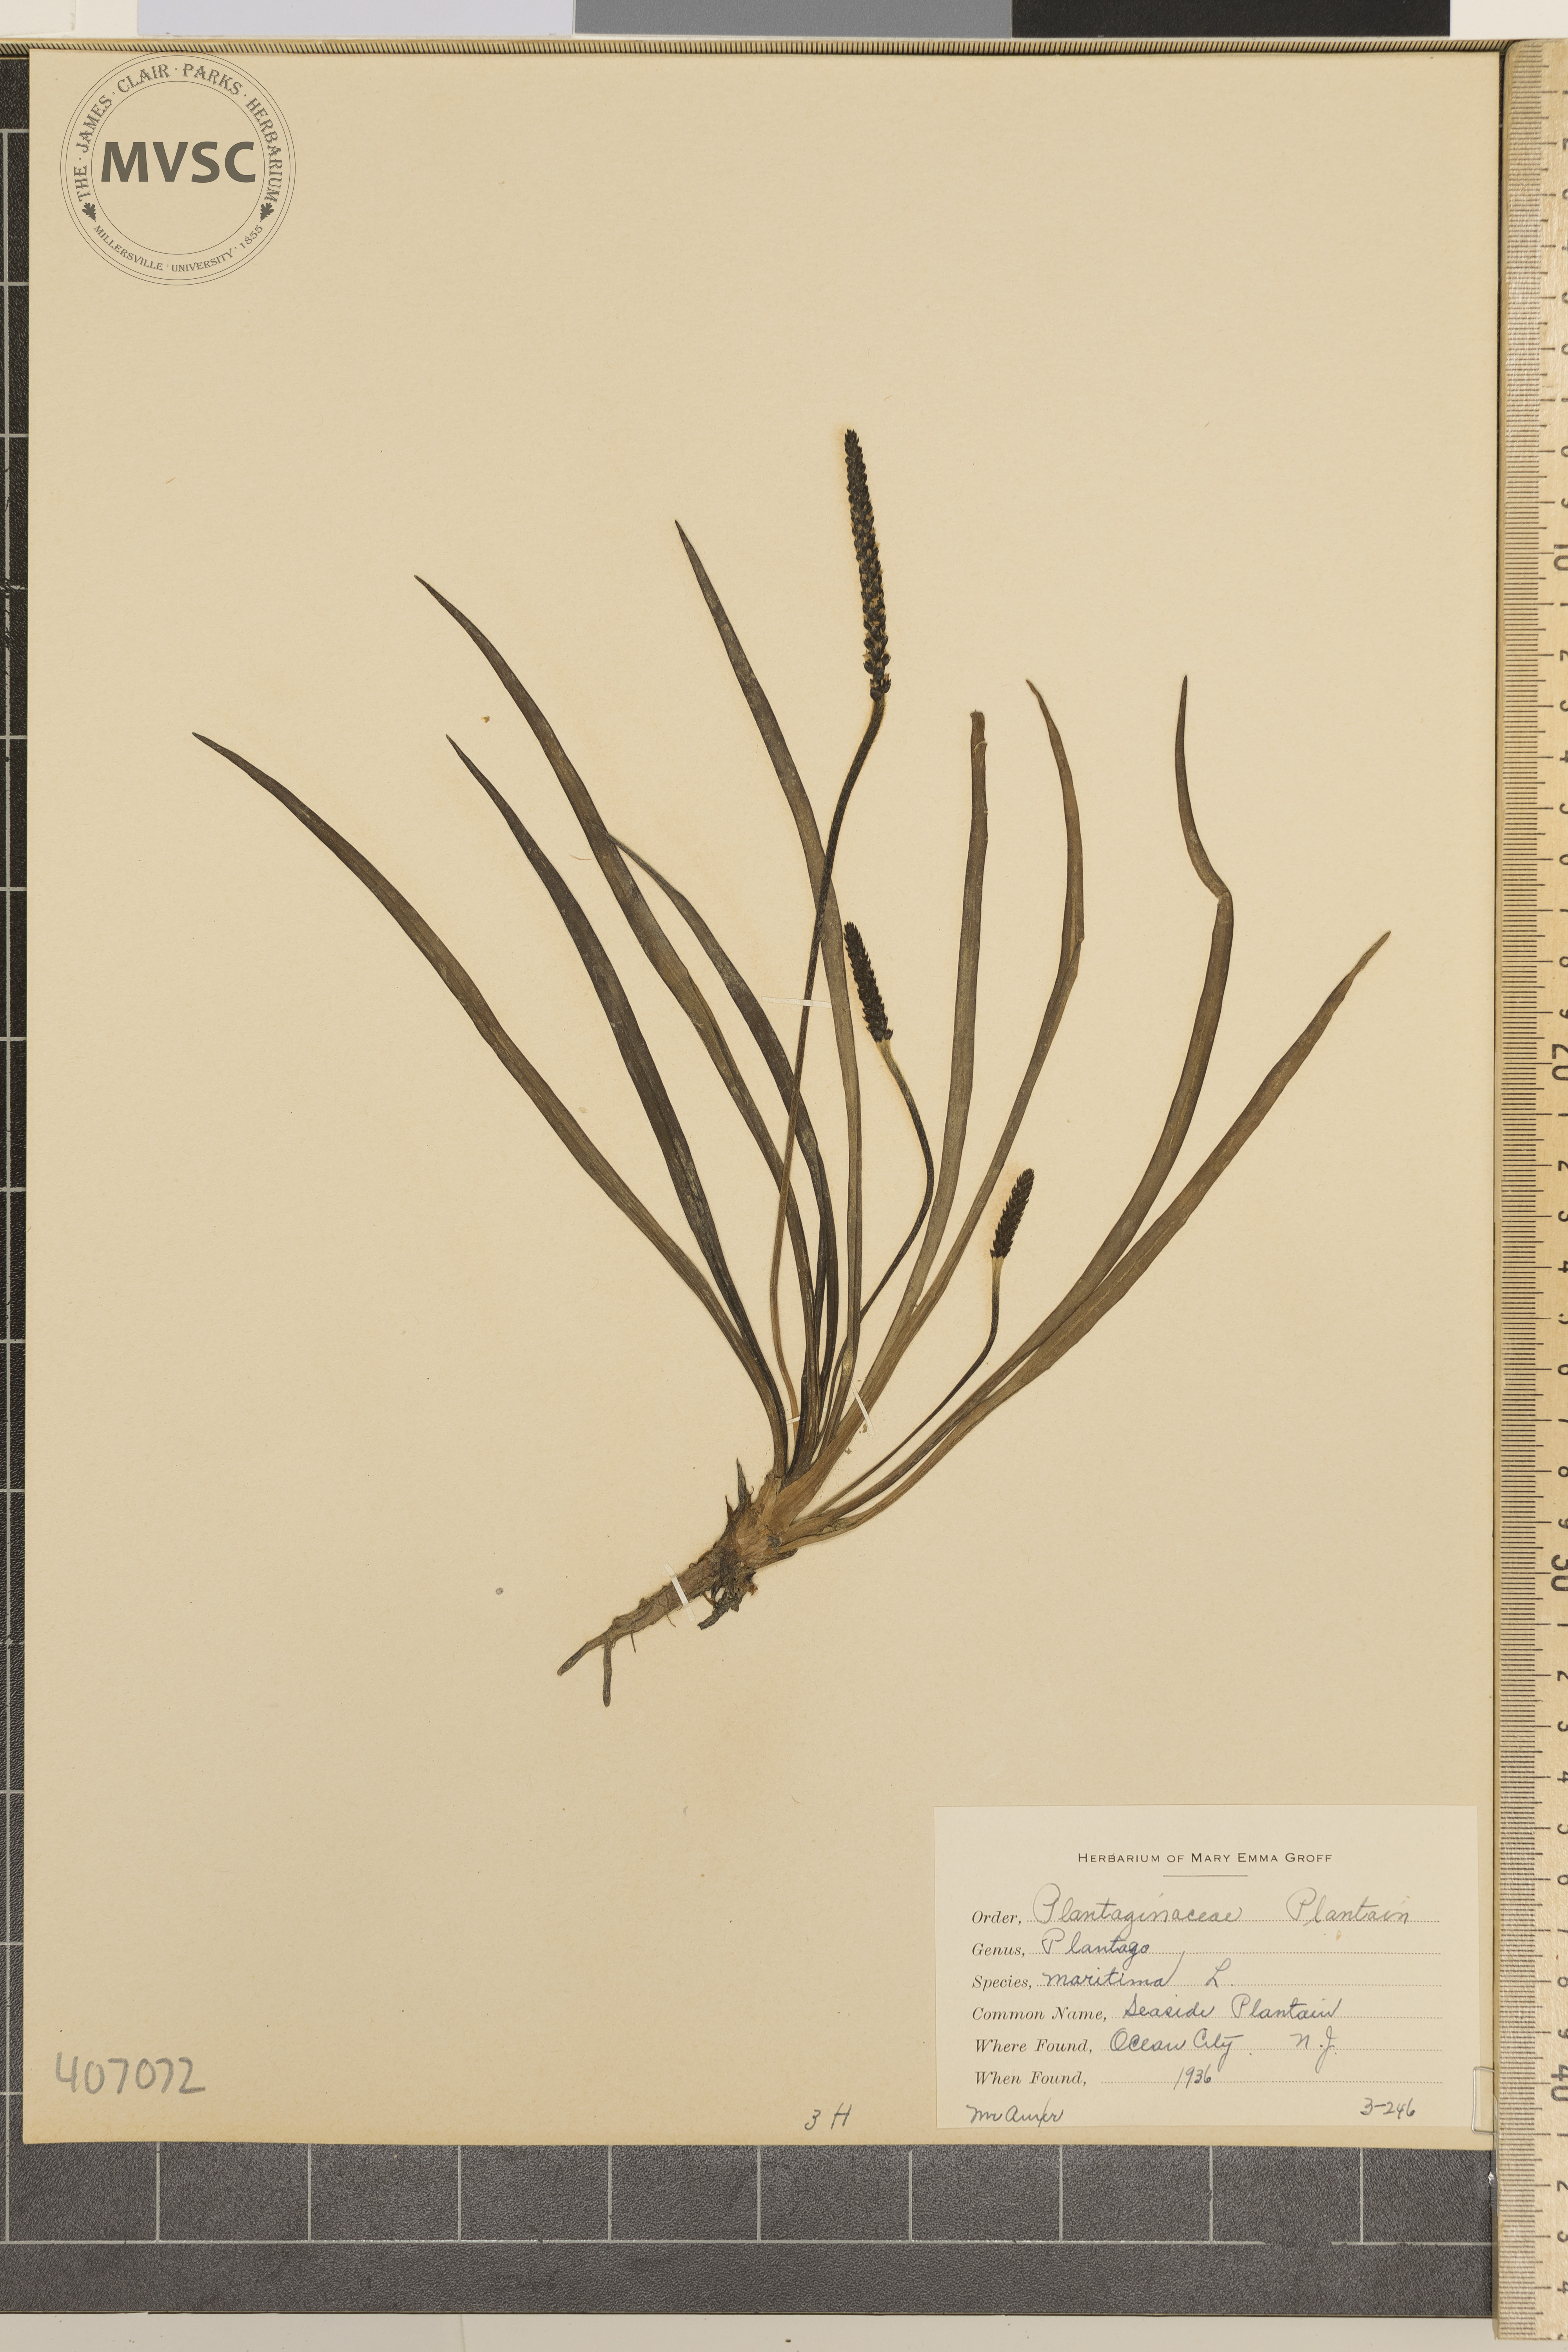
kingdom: Plantae
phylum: Tracheophyta
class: Magnoliopsida
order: Lamiales
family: Plantaginaceae
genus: Plantago
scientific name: Plantago maritima
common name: Seaside Plantain
